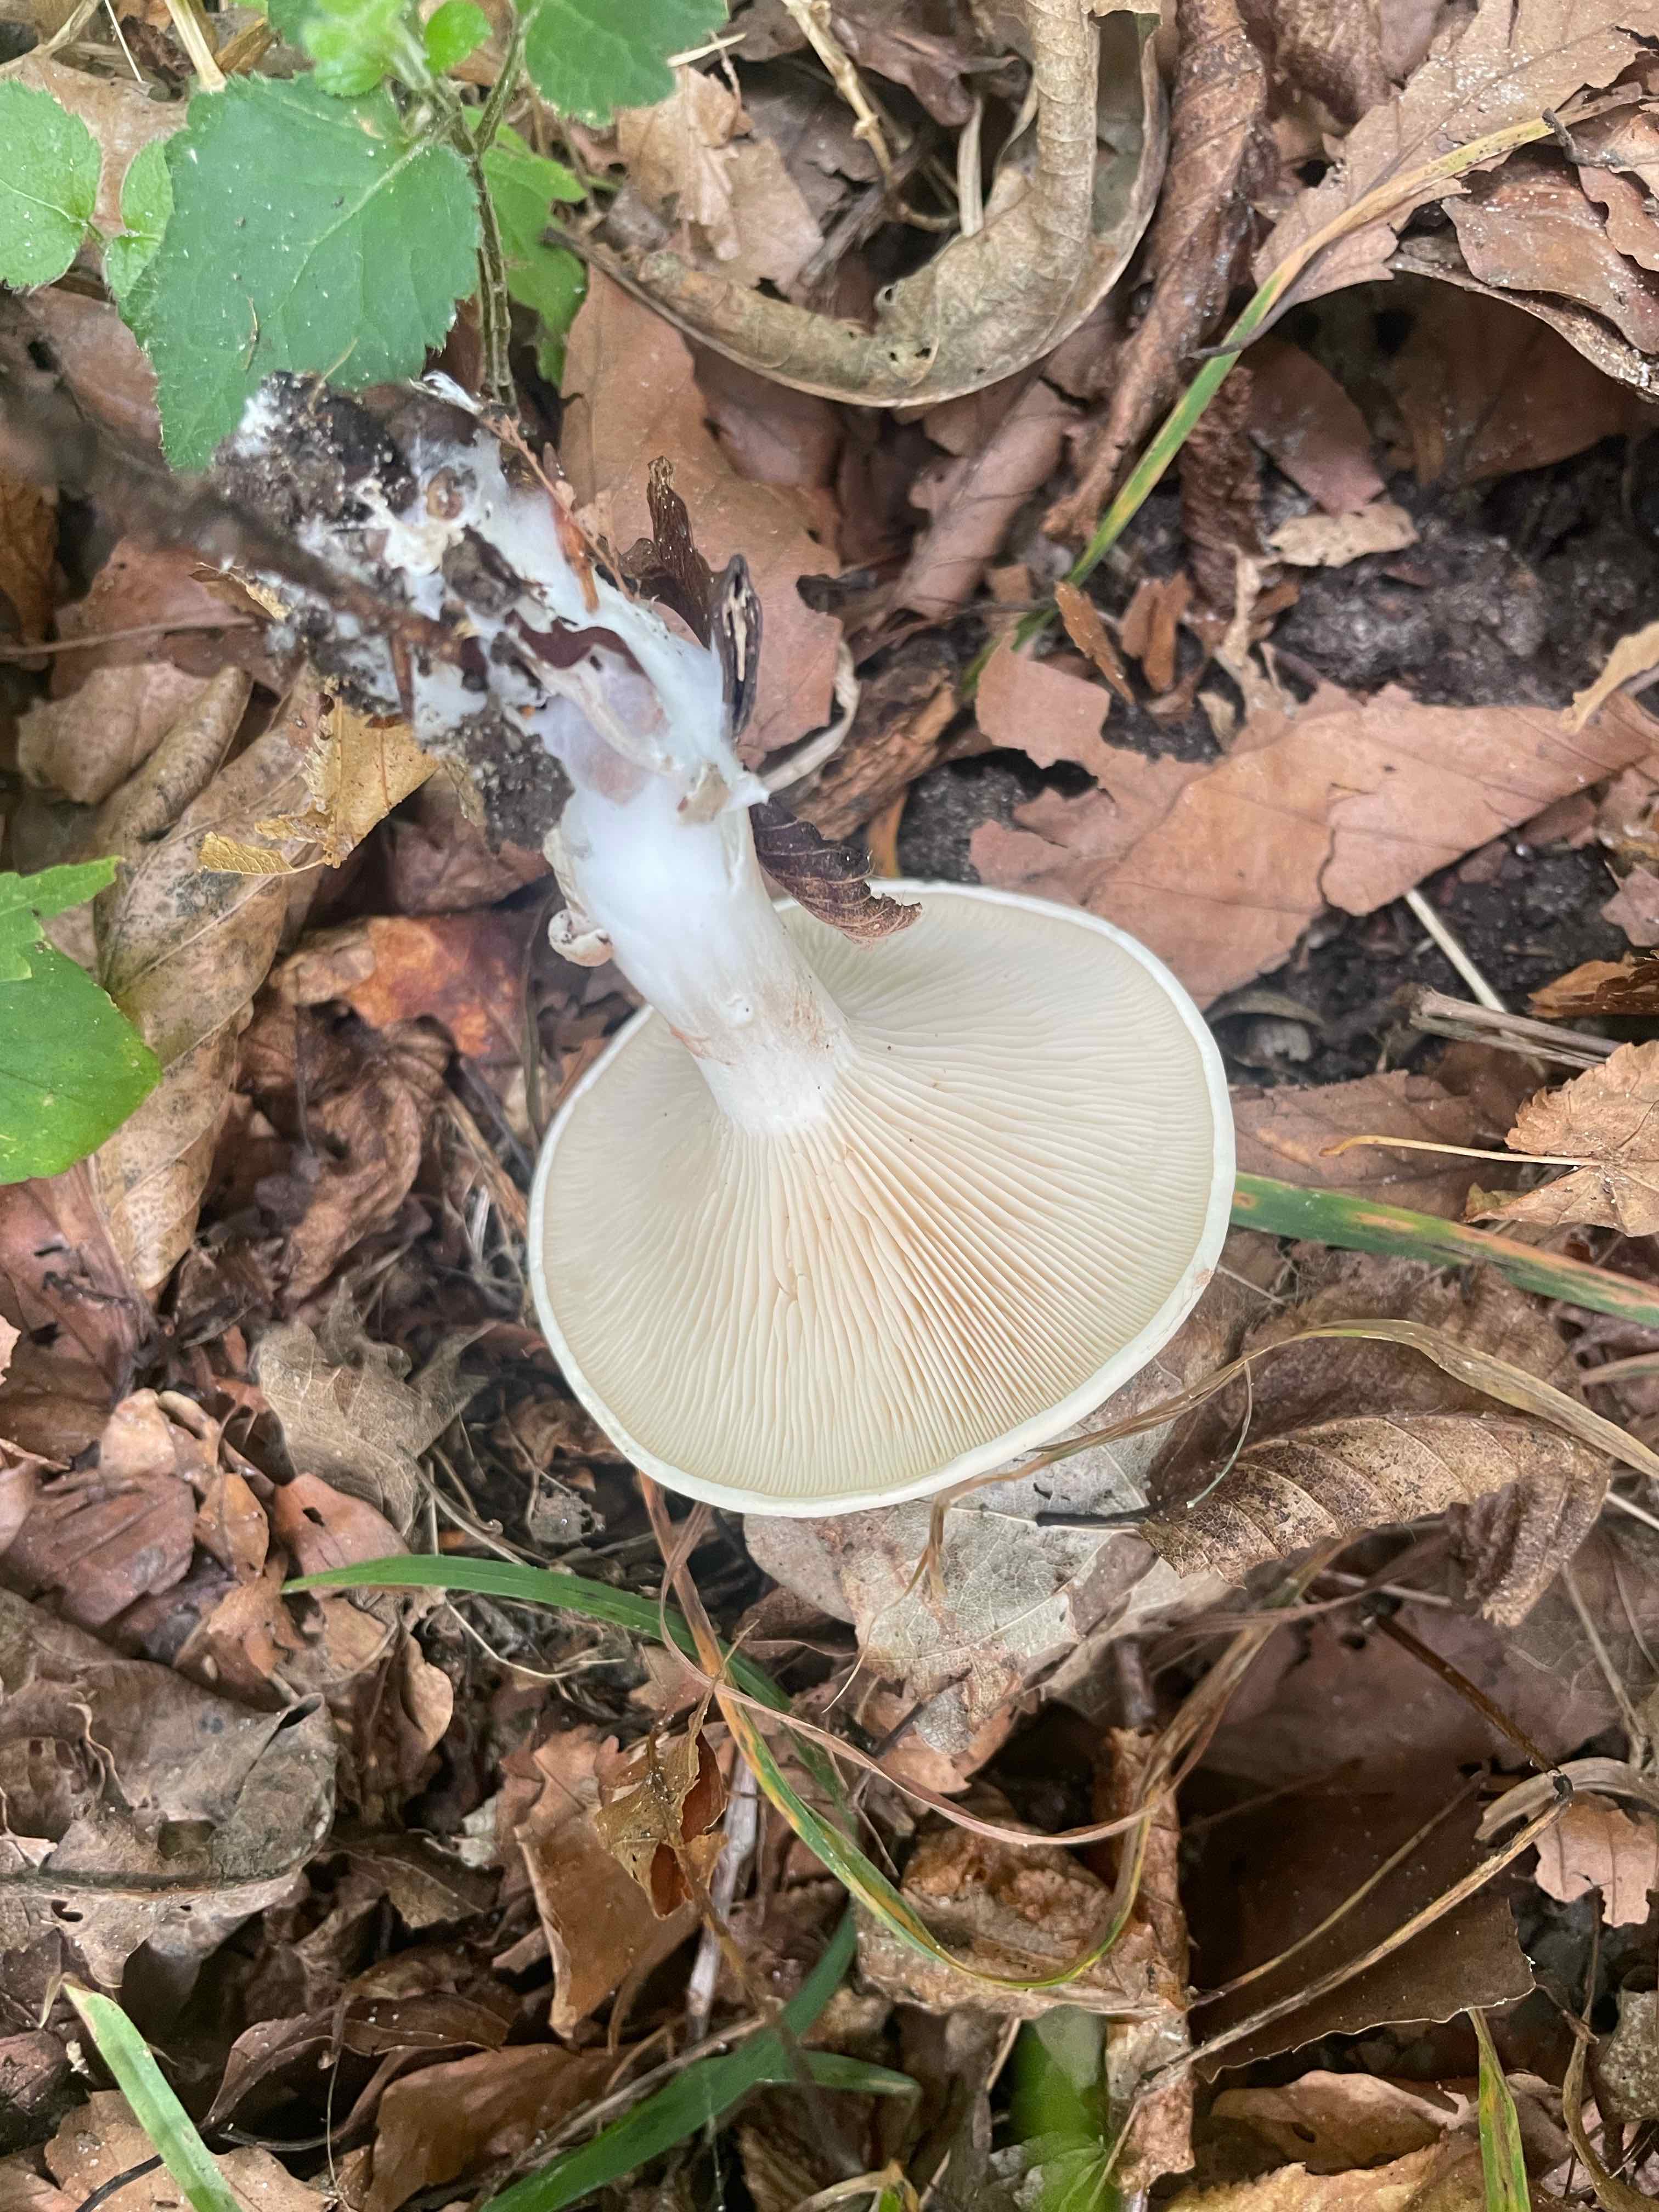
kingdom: Fungi
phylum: Basidiomycota
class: Agaricomycetes
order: Agaricales
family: Entolomataceae
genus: Clitopilus
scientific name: Clitopilus prunulus
